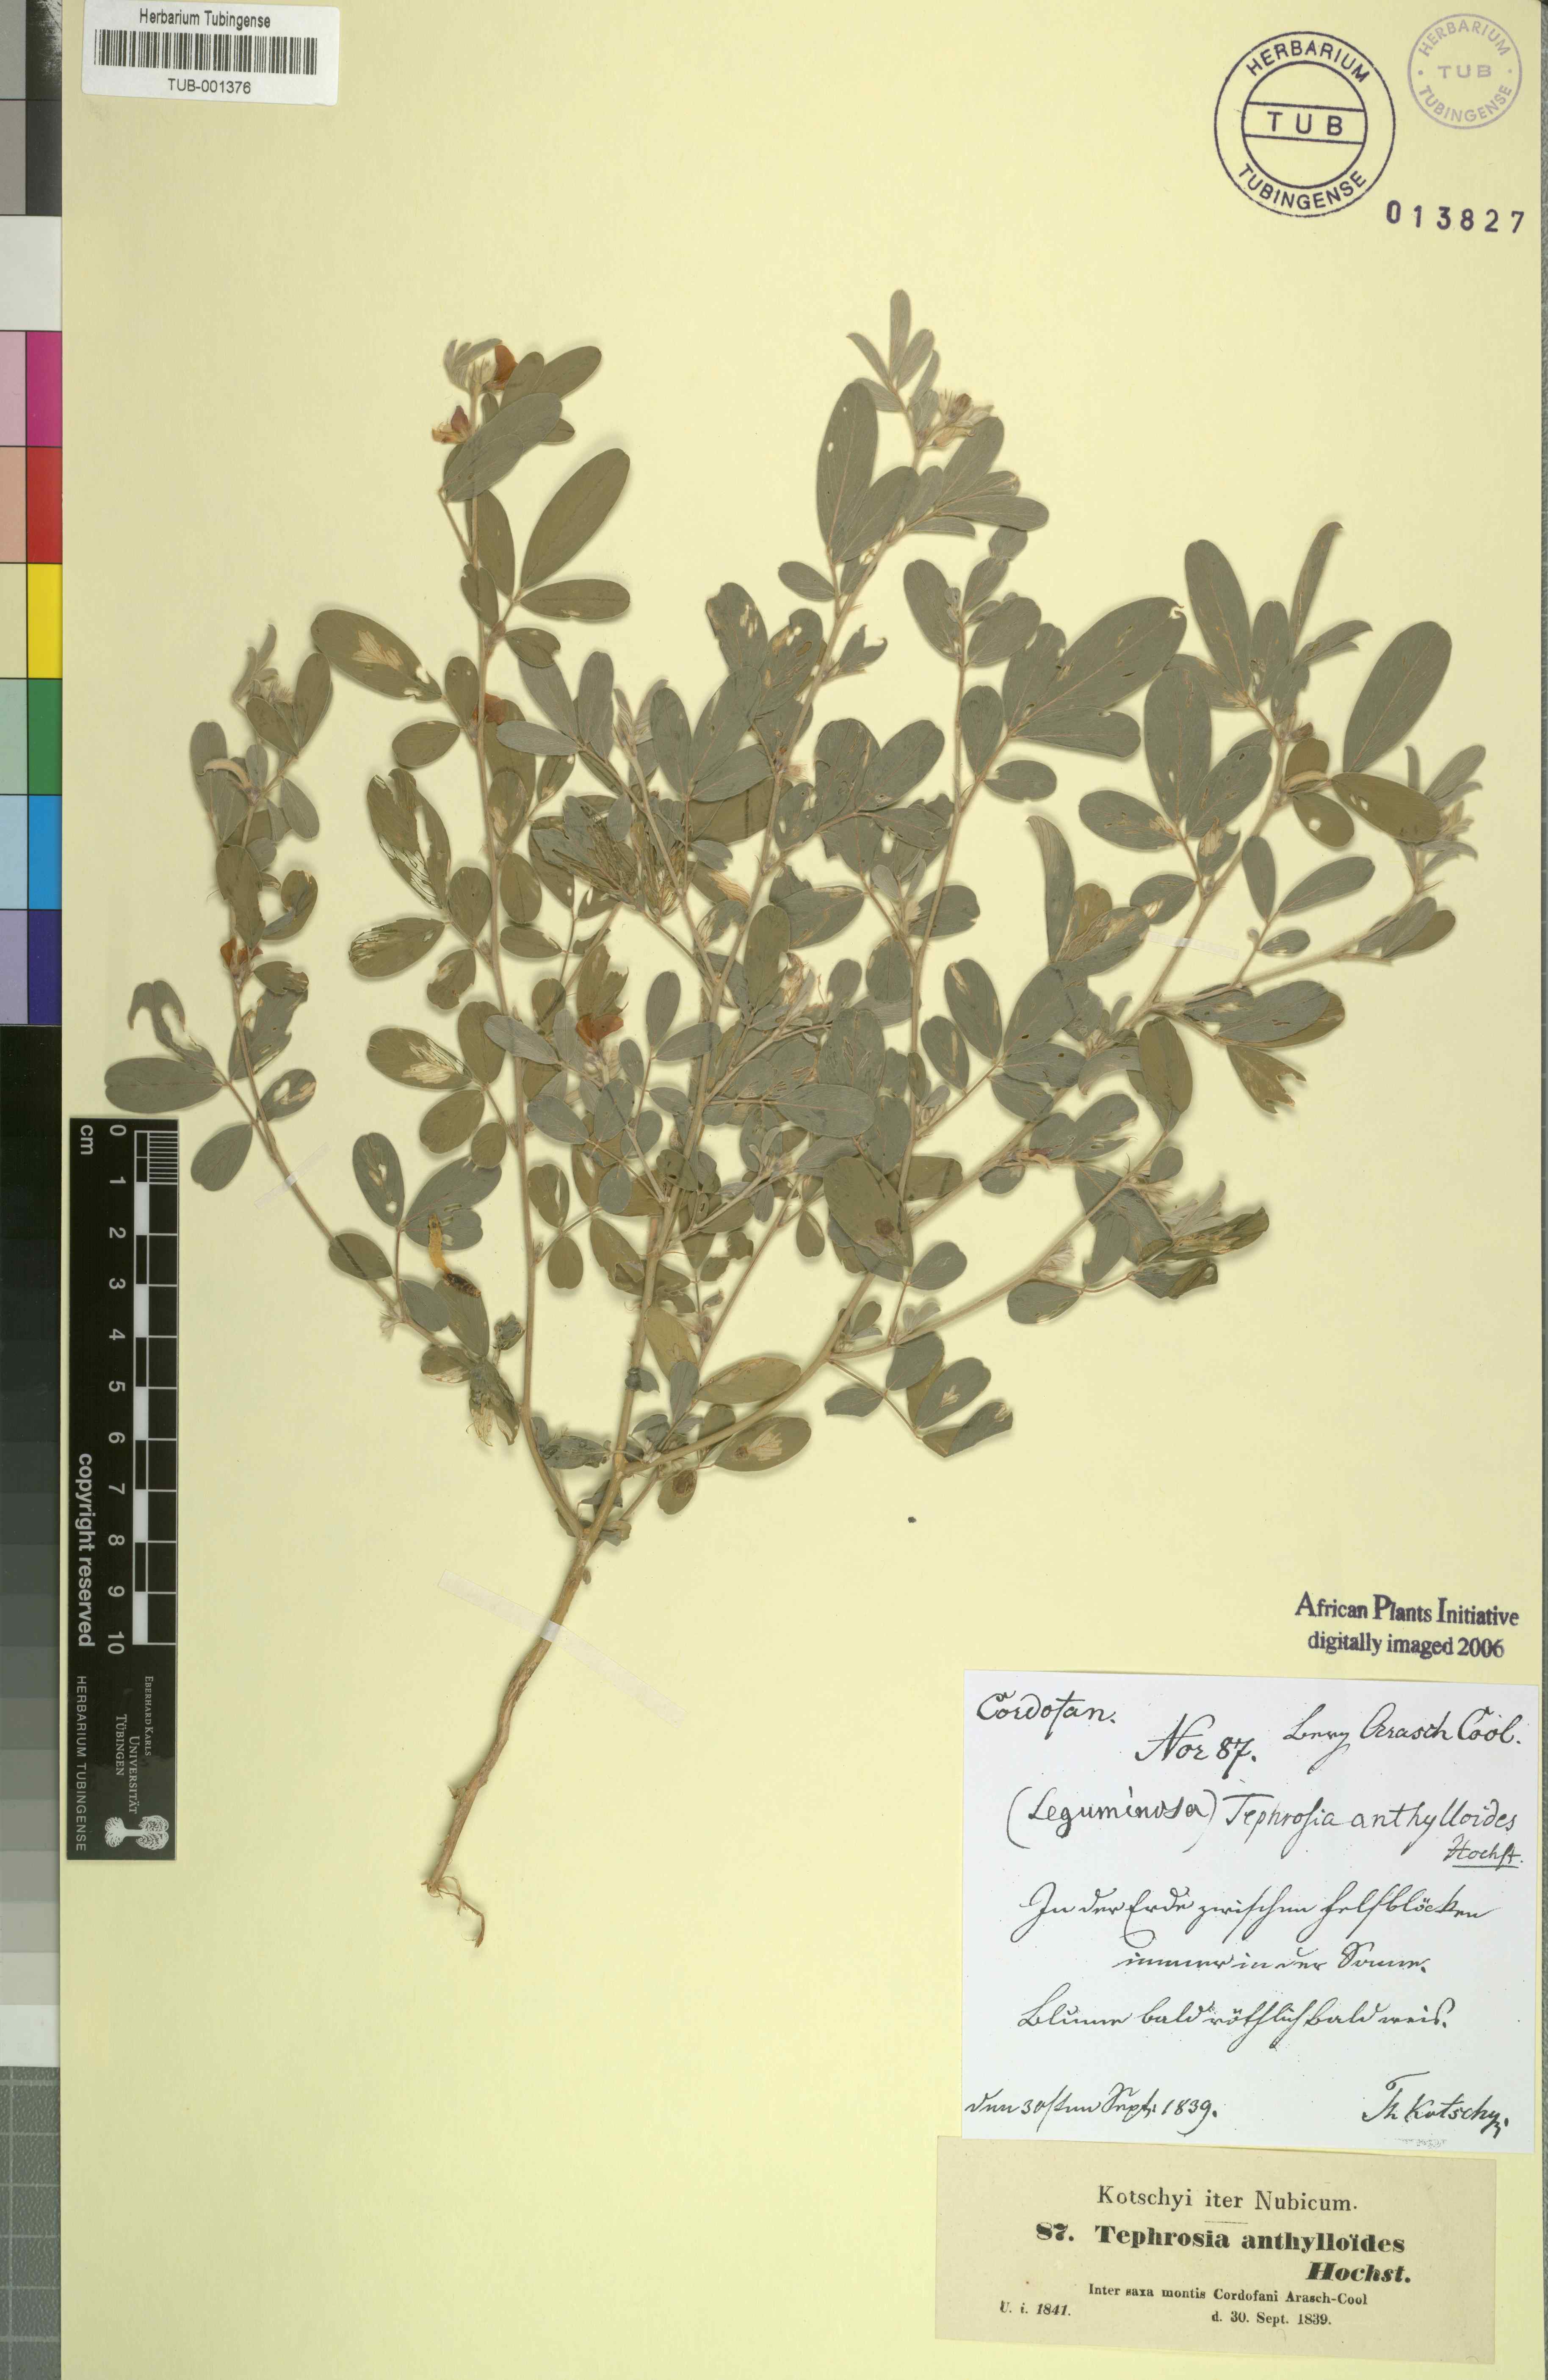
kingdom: Plantae
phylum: Tracheophyta
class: Magnoliopsida
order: Fabales
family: Fabaceae
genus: Tephrosia
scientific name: Tephrosia uniflora
